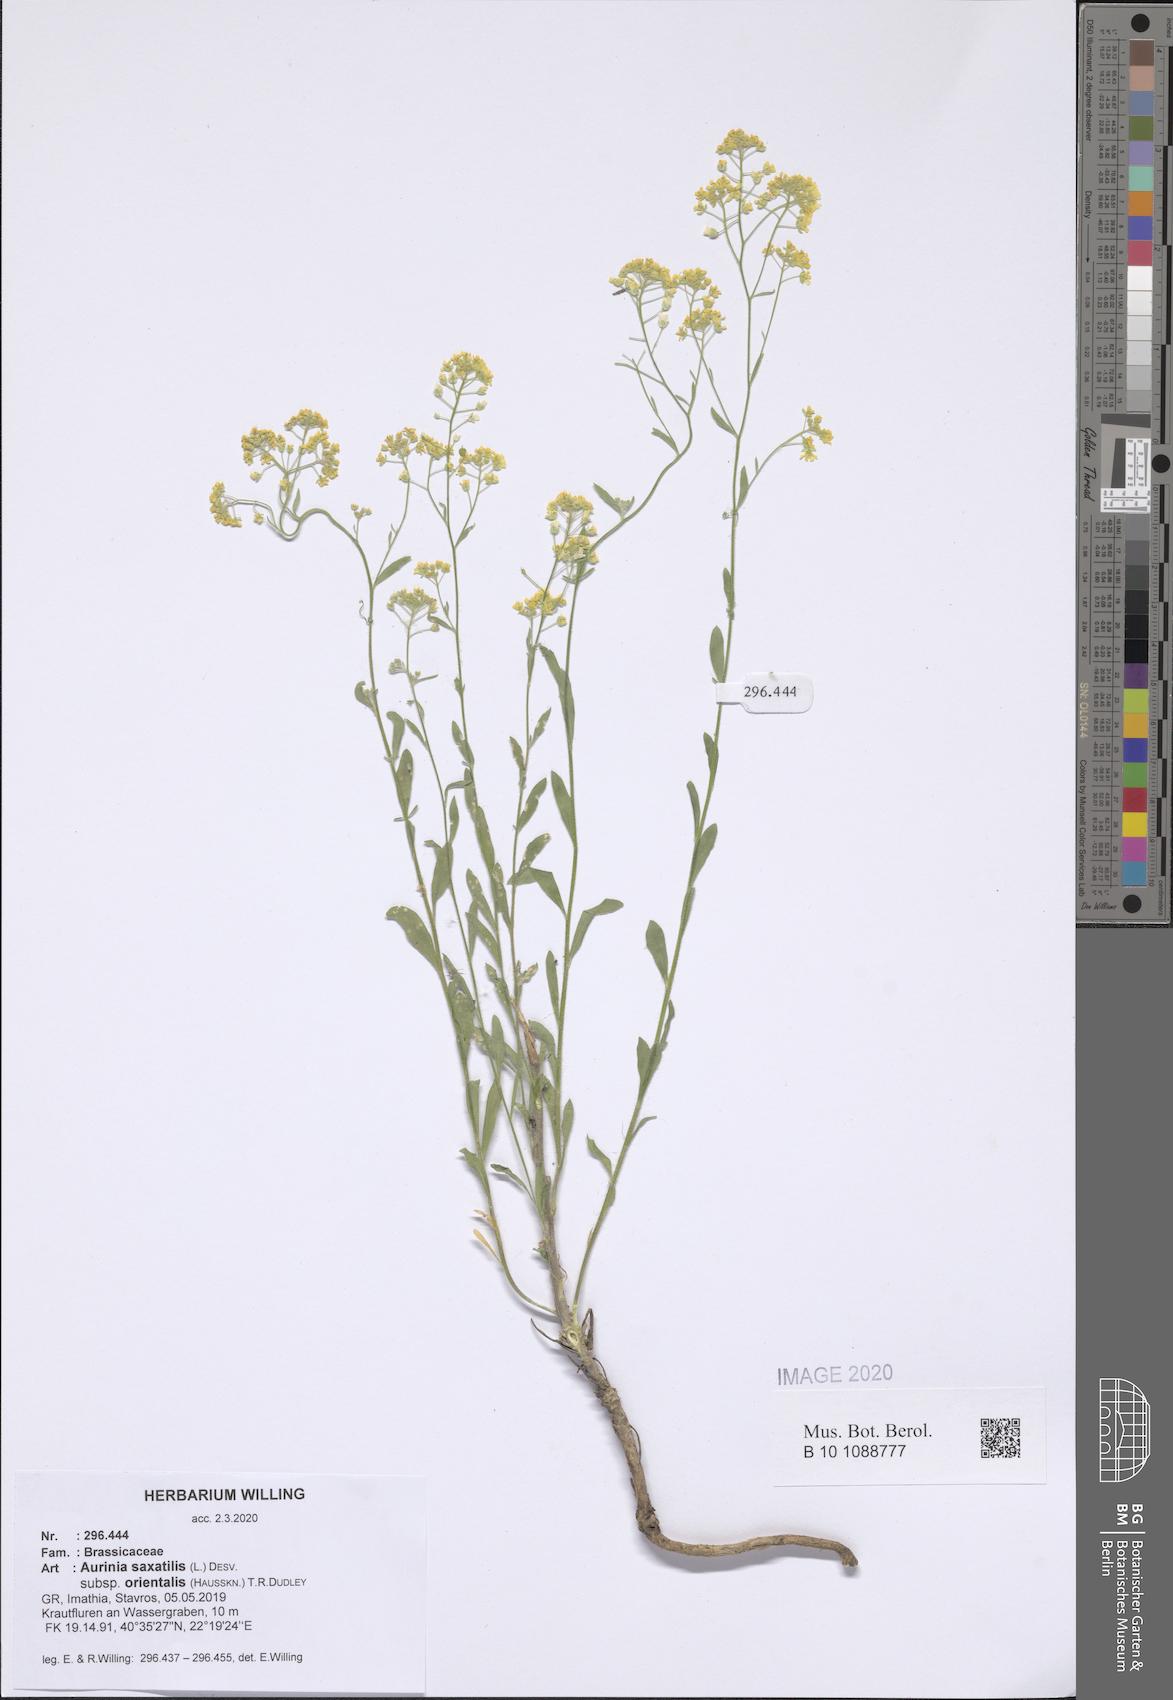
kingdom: Plantae
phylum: Tracheophyta
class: Magnoliopsida
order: Brassicales
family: Brassicaceae
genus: Aurinia
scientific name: Aurinia saxatilis
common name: Golden-tuft alyssum
